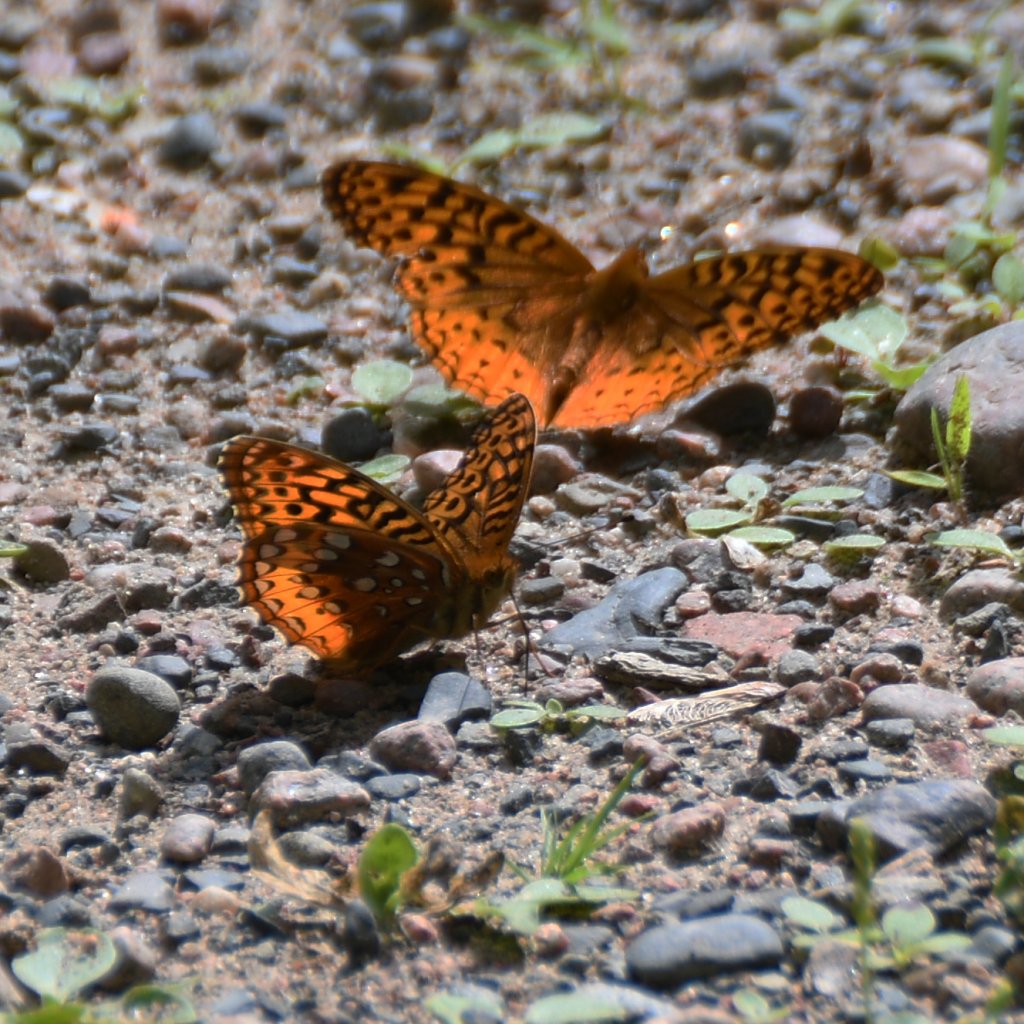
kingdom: Animalia
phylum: Arthropoda
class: Insecta
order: Lepidoptera
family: Nymphalidae
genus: Speyeria
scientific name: Speyeria cybele
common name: Great Spangled Fritillary
